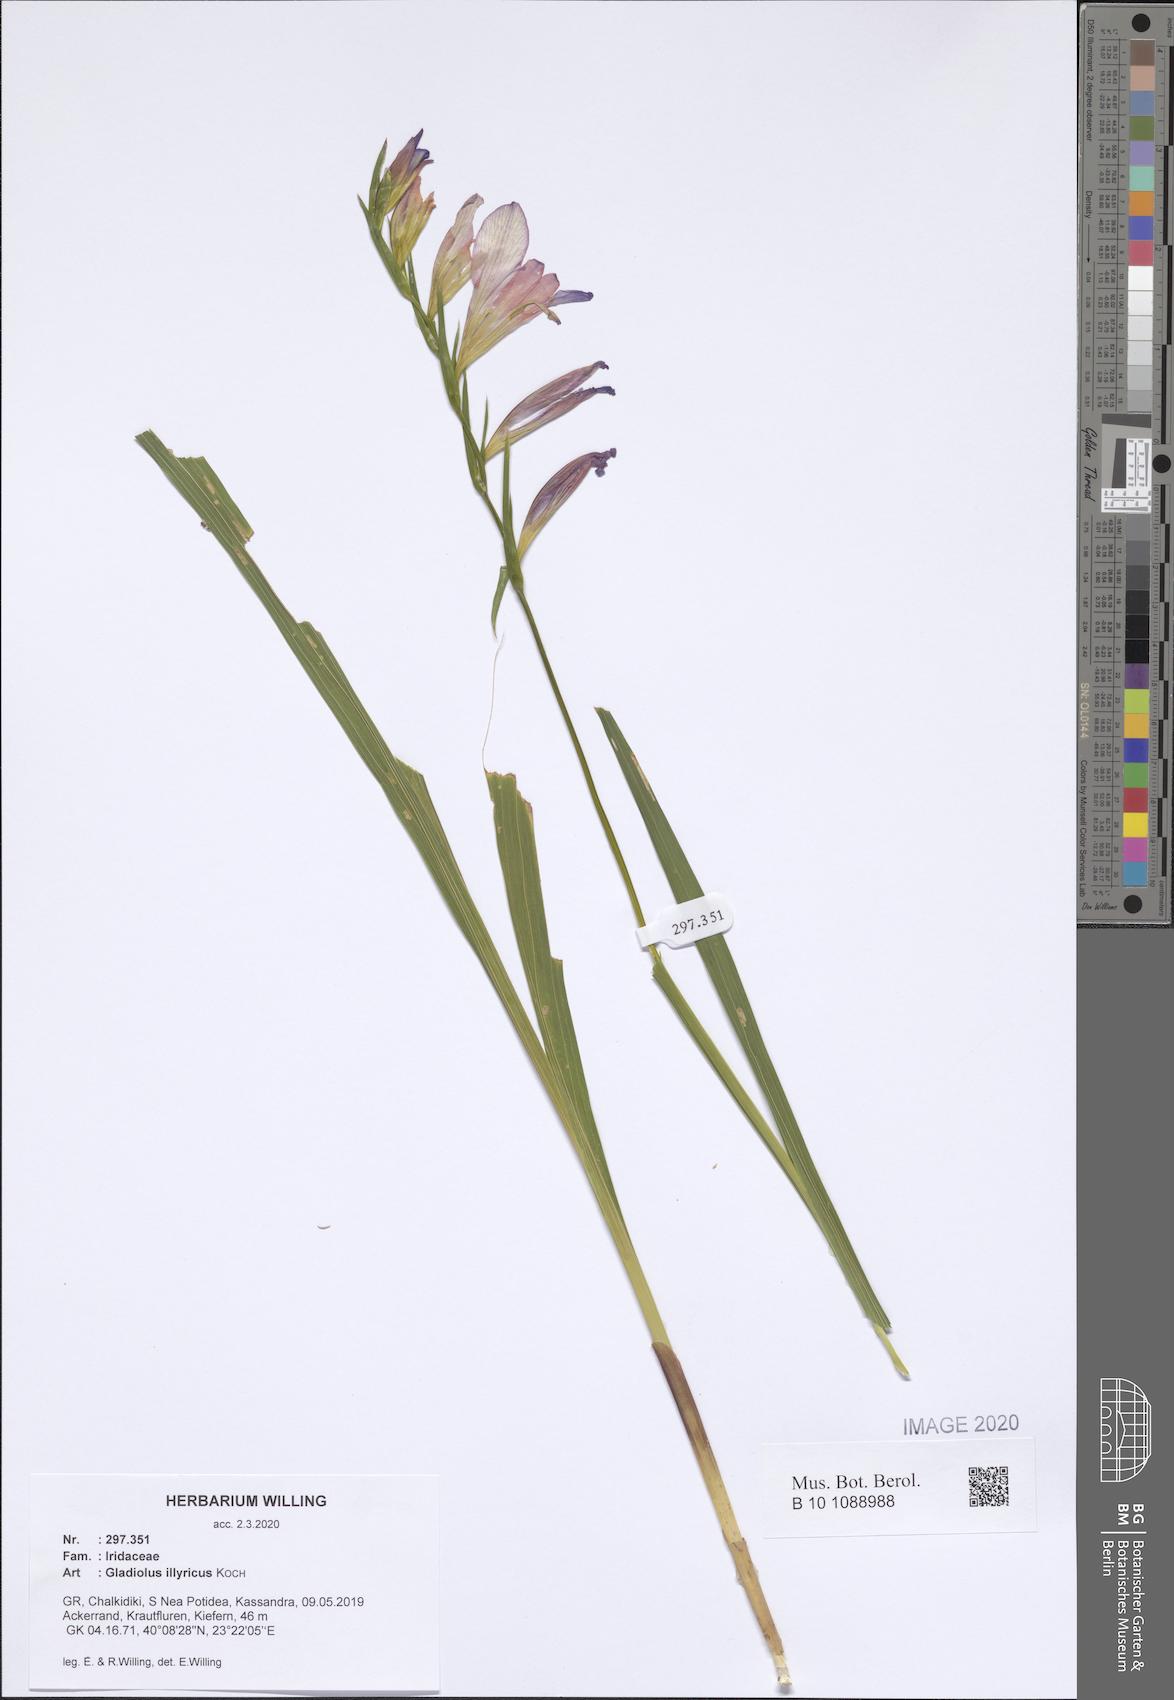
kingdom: Plantae
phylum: Tracheophyta
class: Liliopsida
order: Asparagales
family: Iridaceae
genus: Gladiolus
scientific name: Gladiolus illyricus
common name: Wild gladiolus
